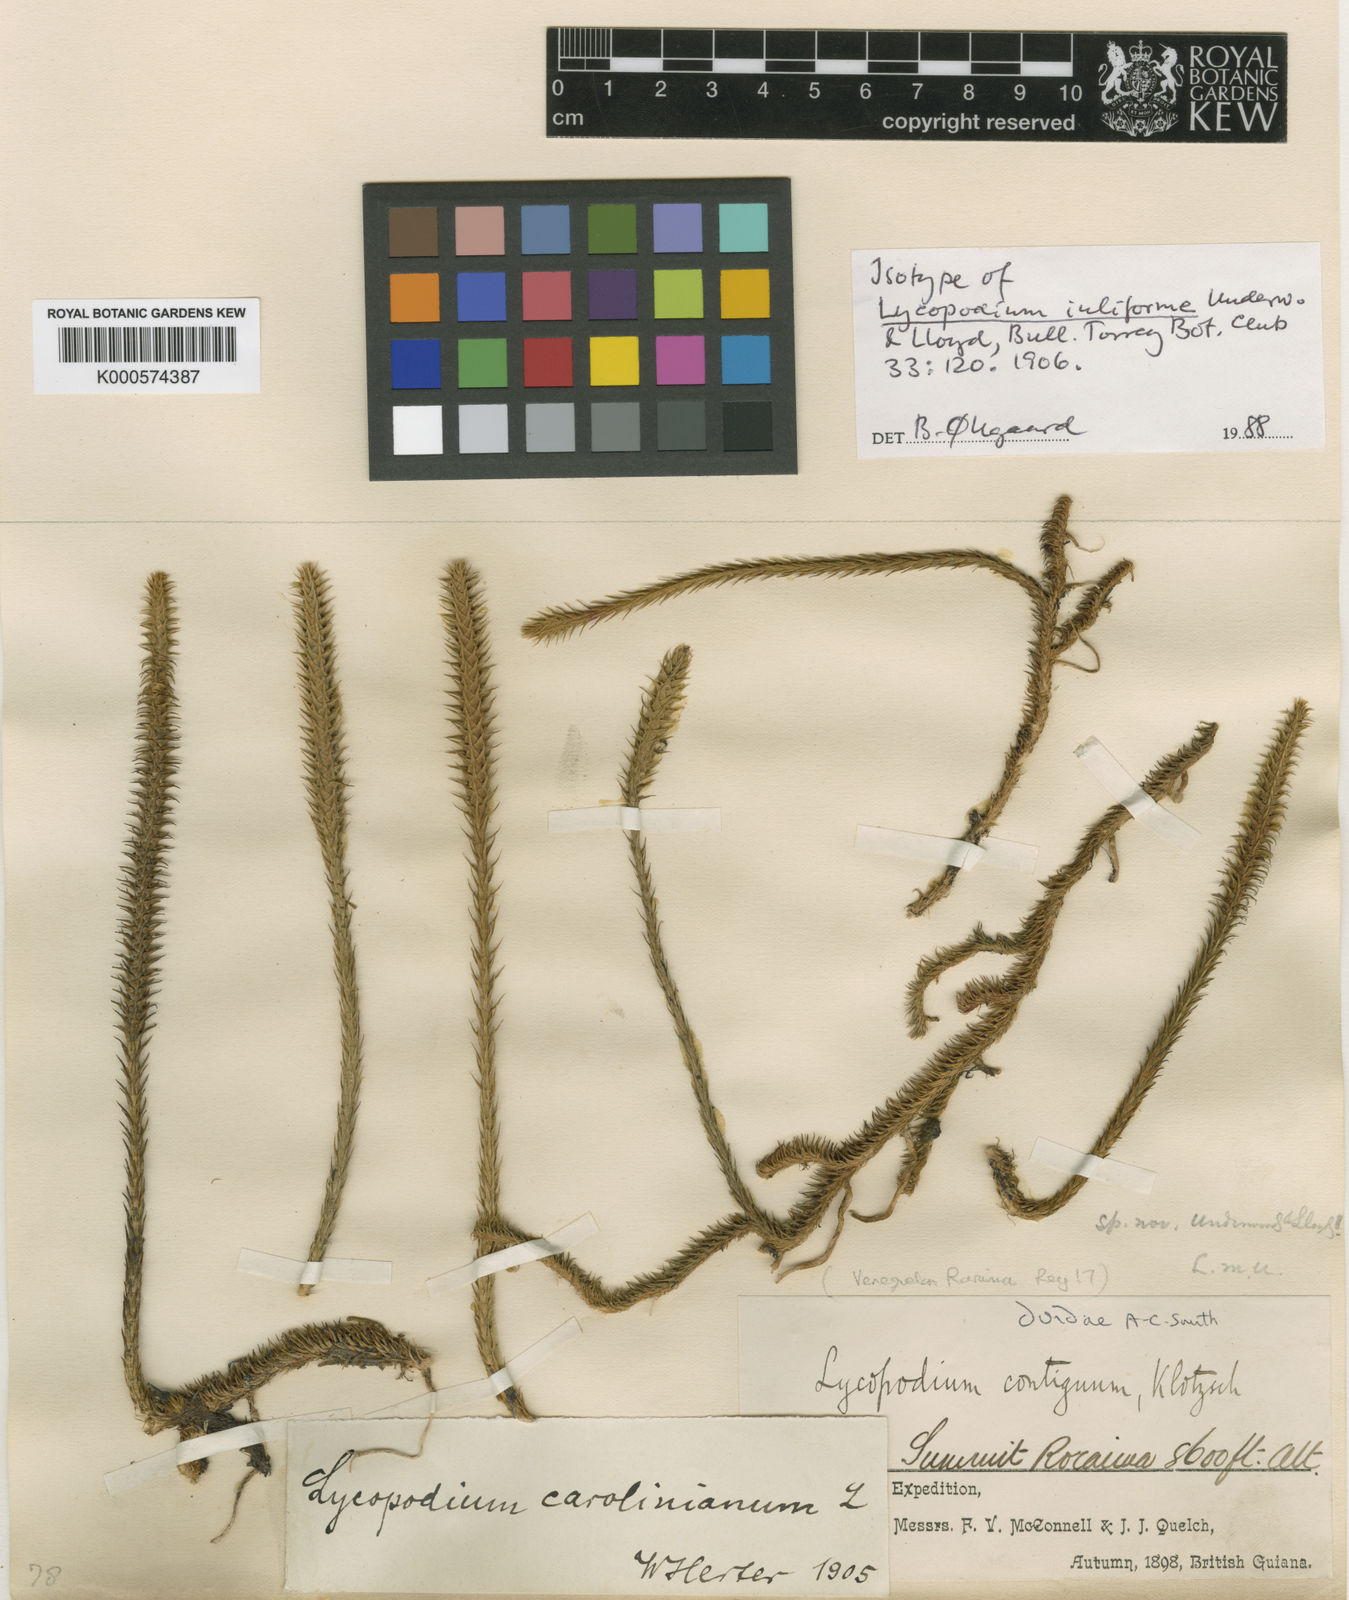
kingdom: Plantae
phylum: Tracheophyta
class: Lycopodiopsida
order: Lycopodiales
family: Lycopodiaceae
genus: Pseudolycopodiella
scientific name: Pseudolycopodiella iuliformis
